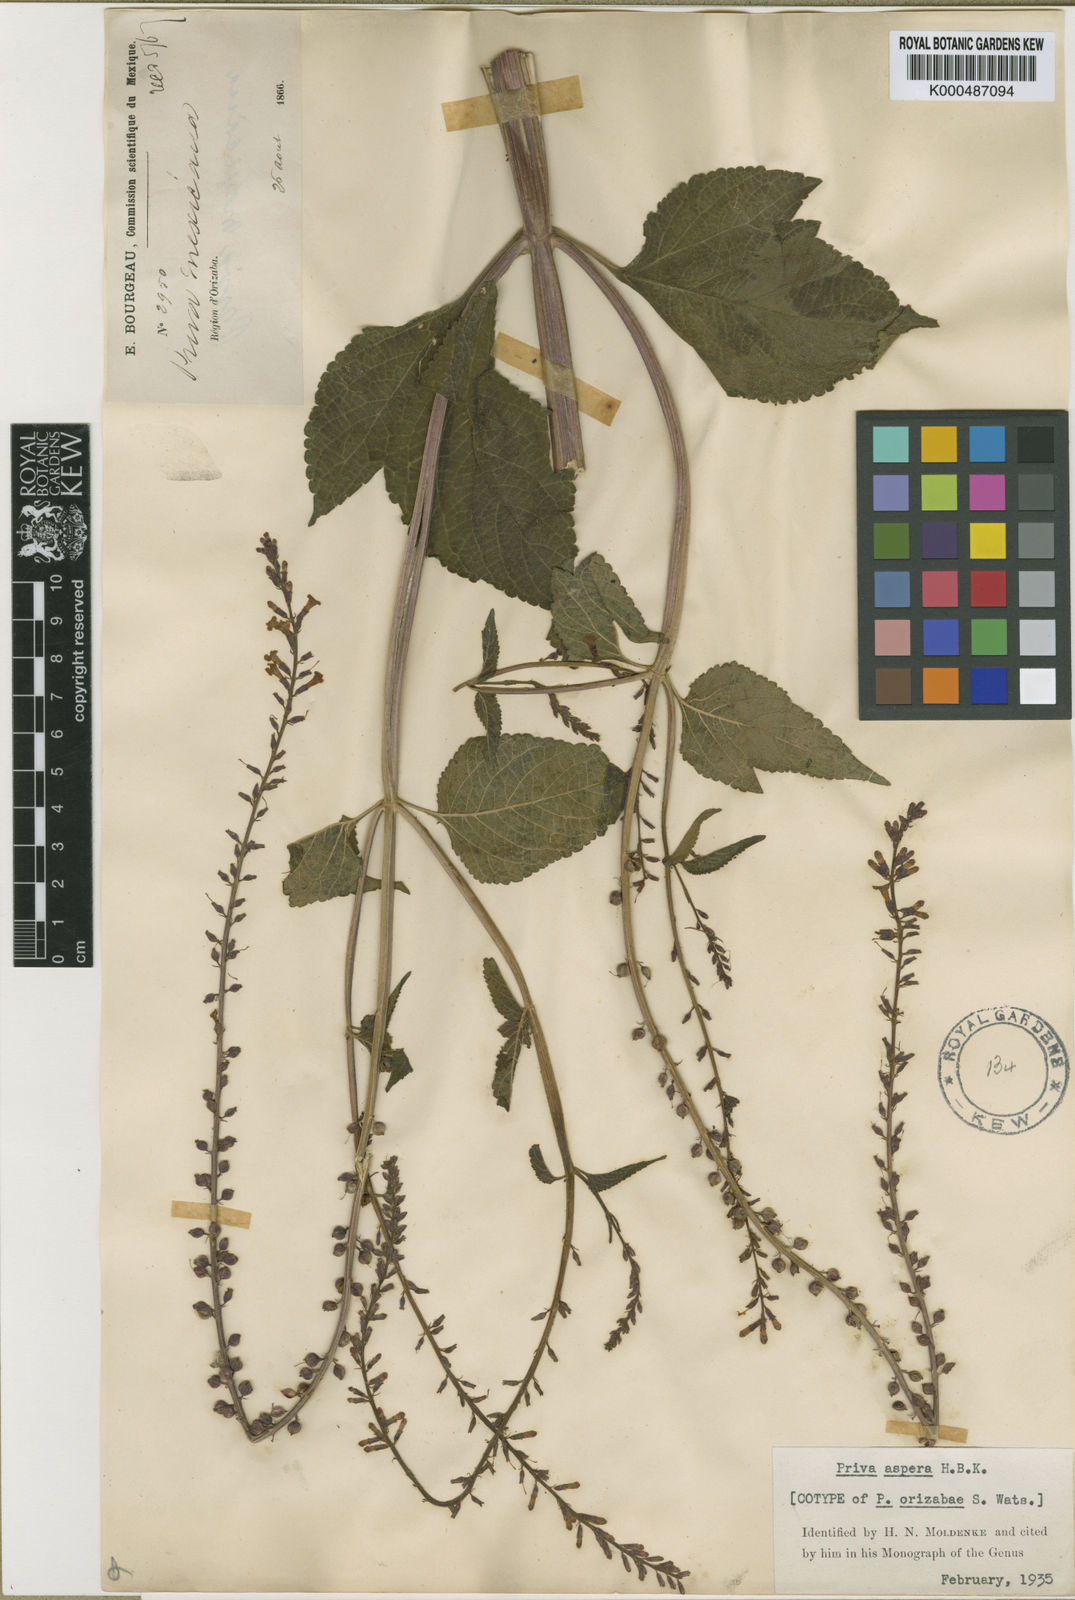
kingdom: Plantae
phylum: Tracheophyta
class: Magnoliopsida
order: Lamiales
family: Verbenaceae
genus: Priva
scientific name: Priva aspera
